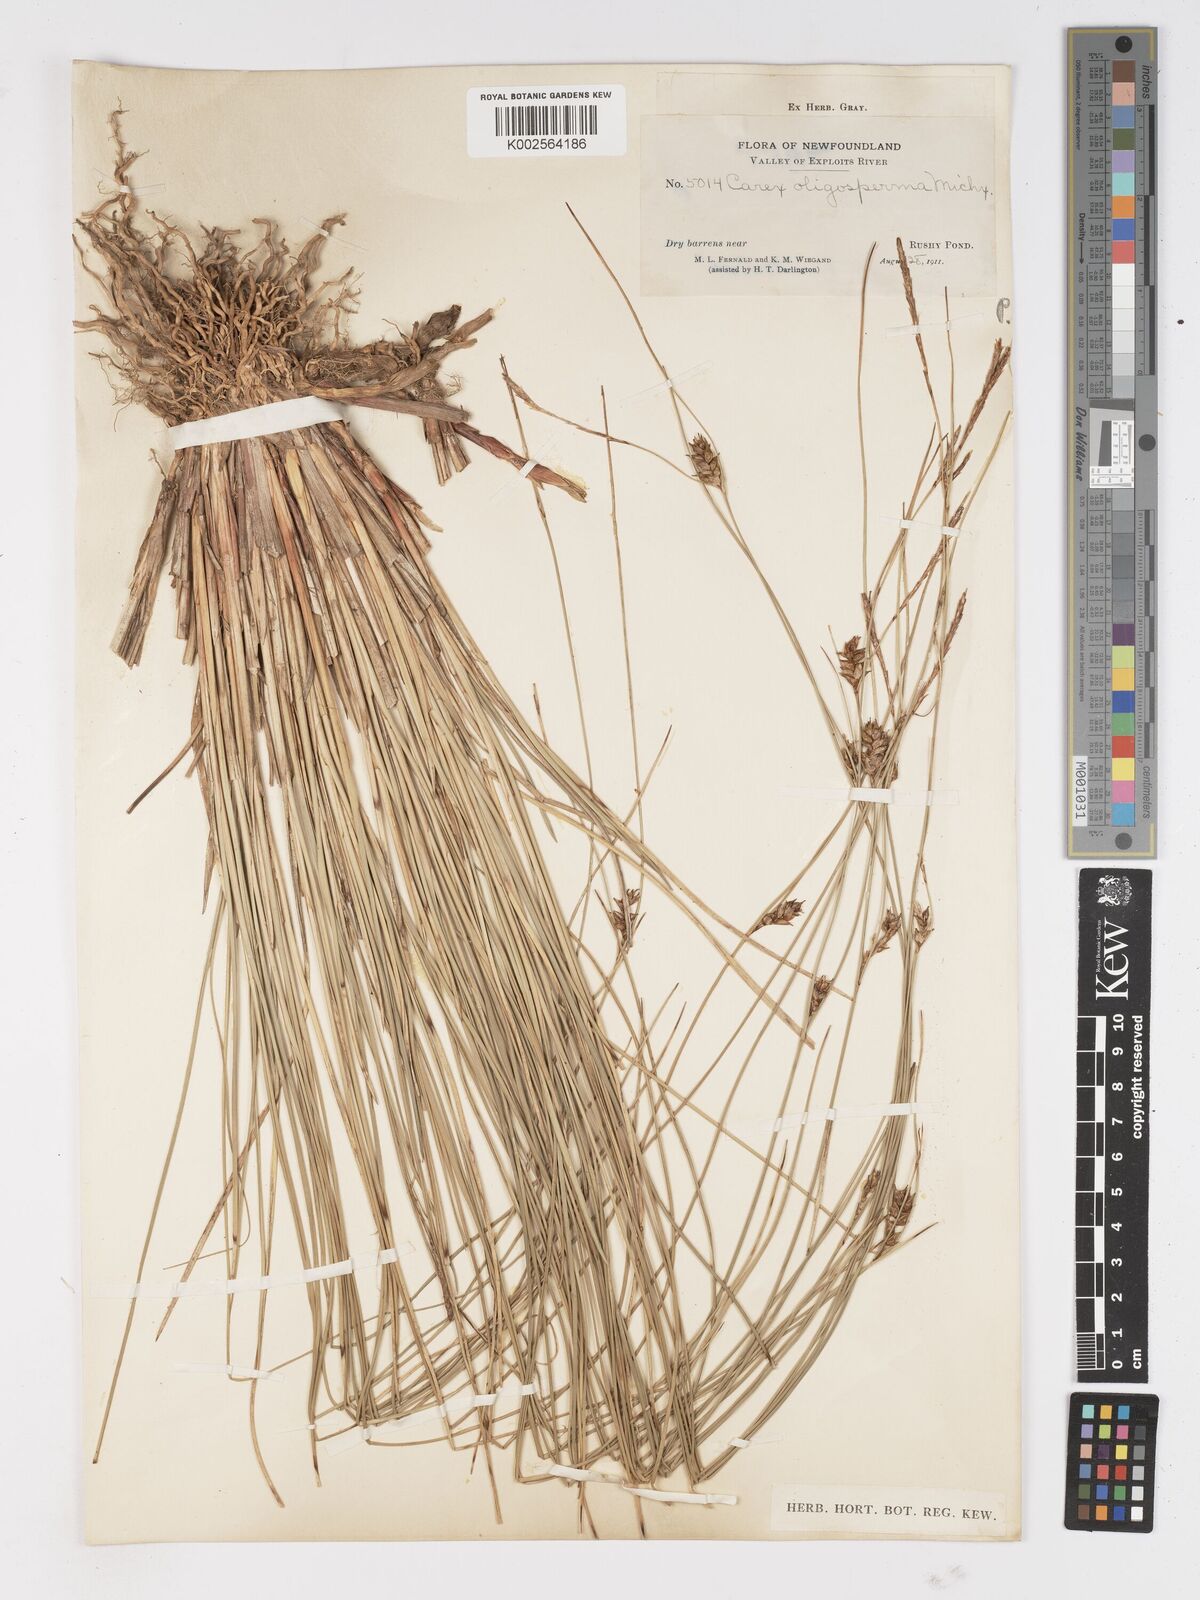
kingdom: Plantae
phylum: Tracheophyta
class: Liliopsida
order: Poales
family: Cyperaceae
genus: Carex
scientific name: Carex oligosperma
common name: Few-seed sedge
